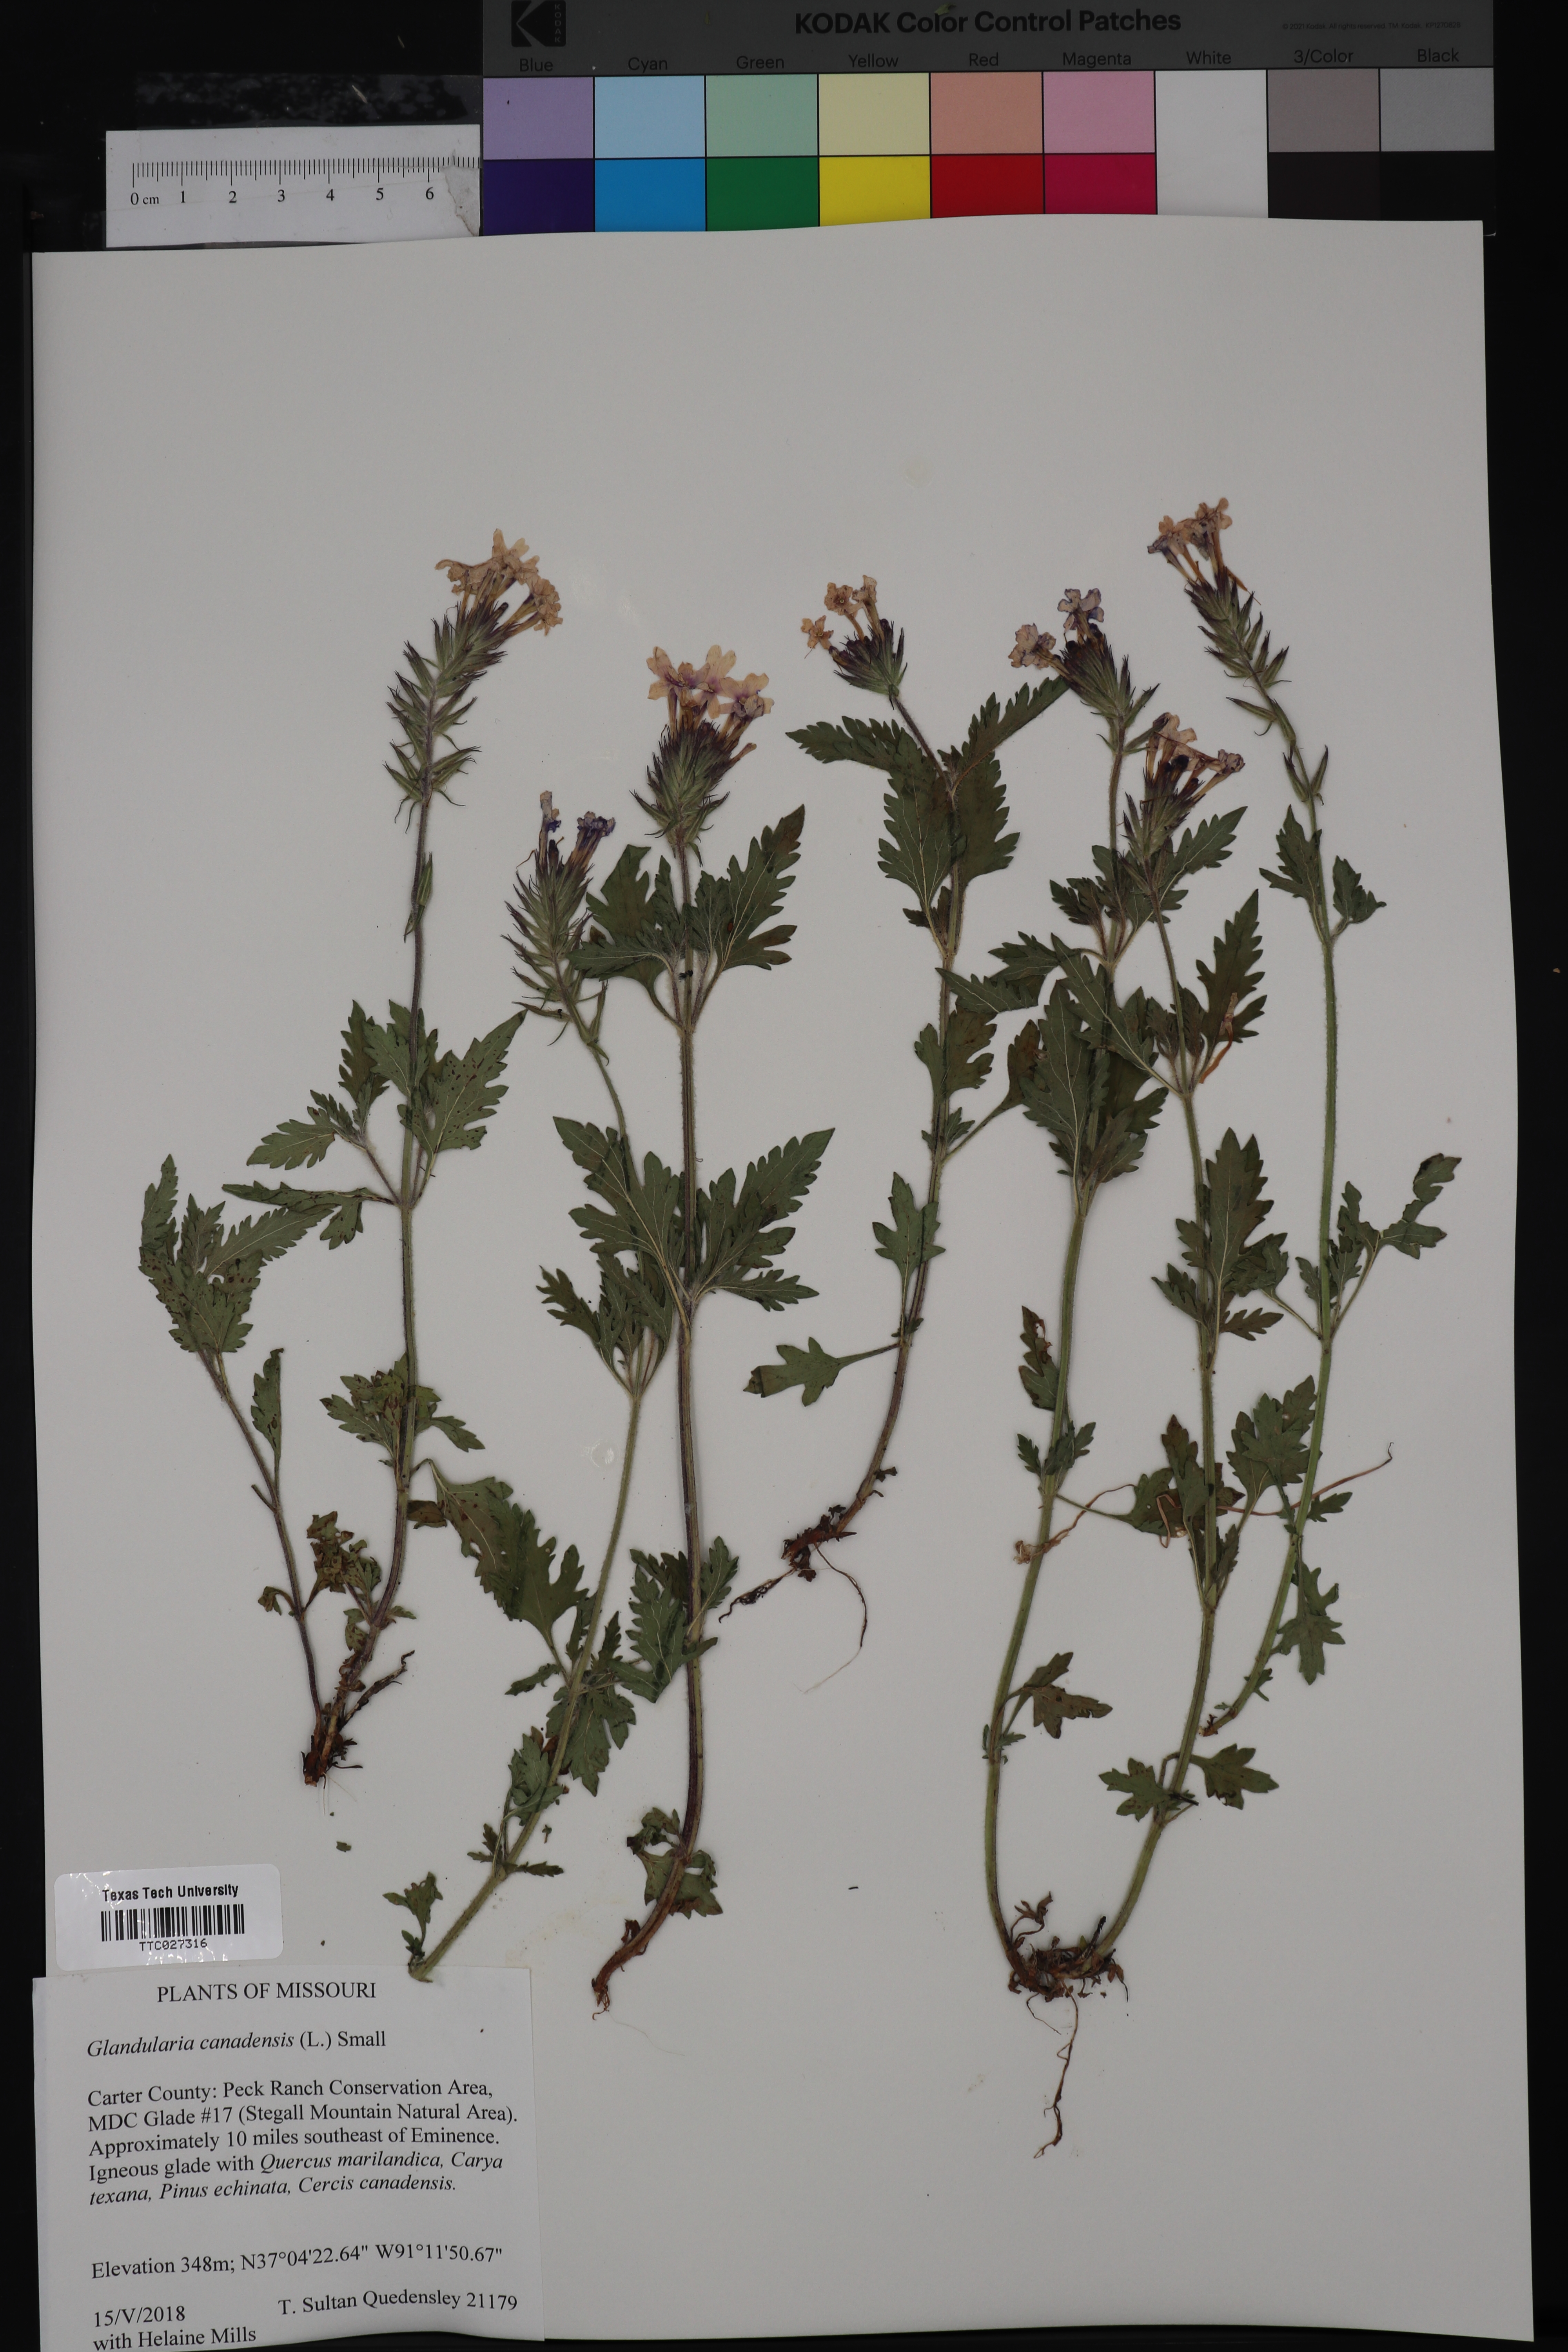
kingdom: Plantae
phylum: Tracheophyta
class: Magnoliopsida
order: Lamiales
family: Verbenaceae
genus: Verbena
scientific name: Verbena canadensis
